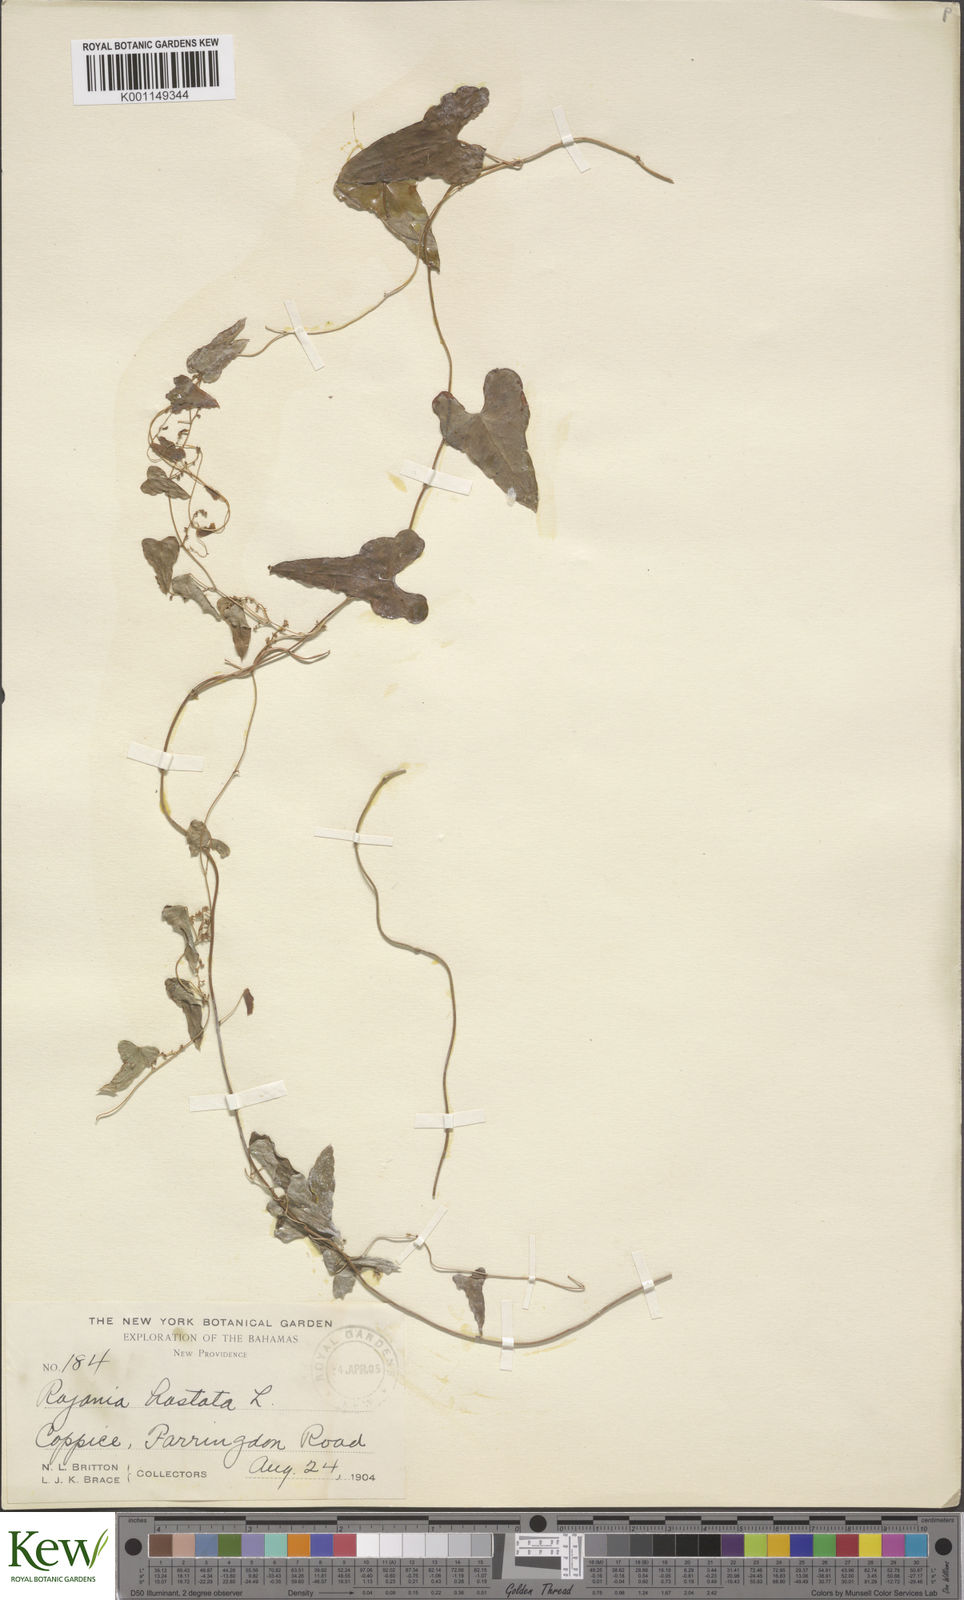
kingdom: Plantae
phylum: Tracheophyta
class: Liliopsida
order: Dioscoreales
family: Dioscoreaceae
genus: Dioscorea
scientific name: Dioscorea mexicana
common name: Mexican yam
